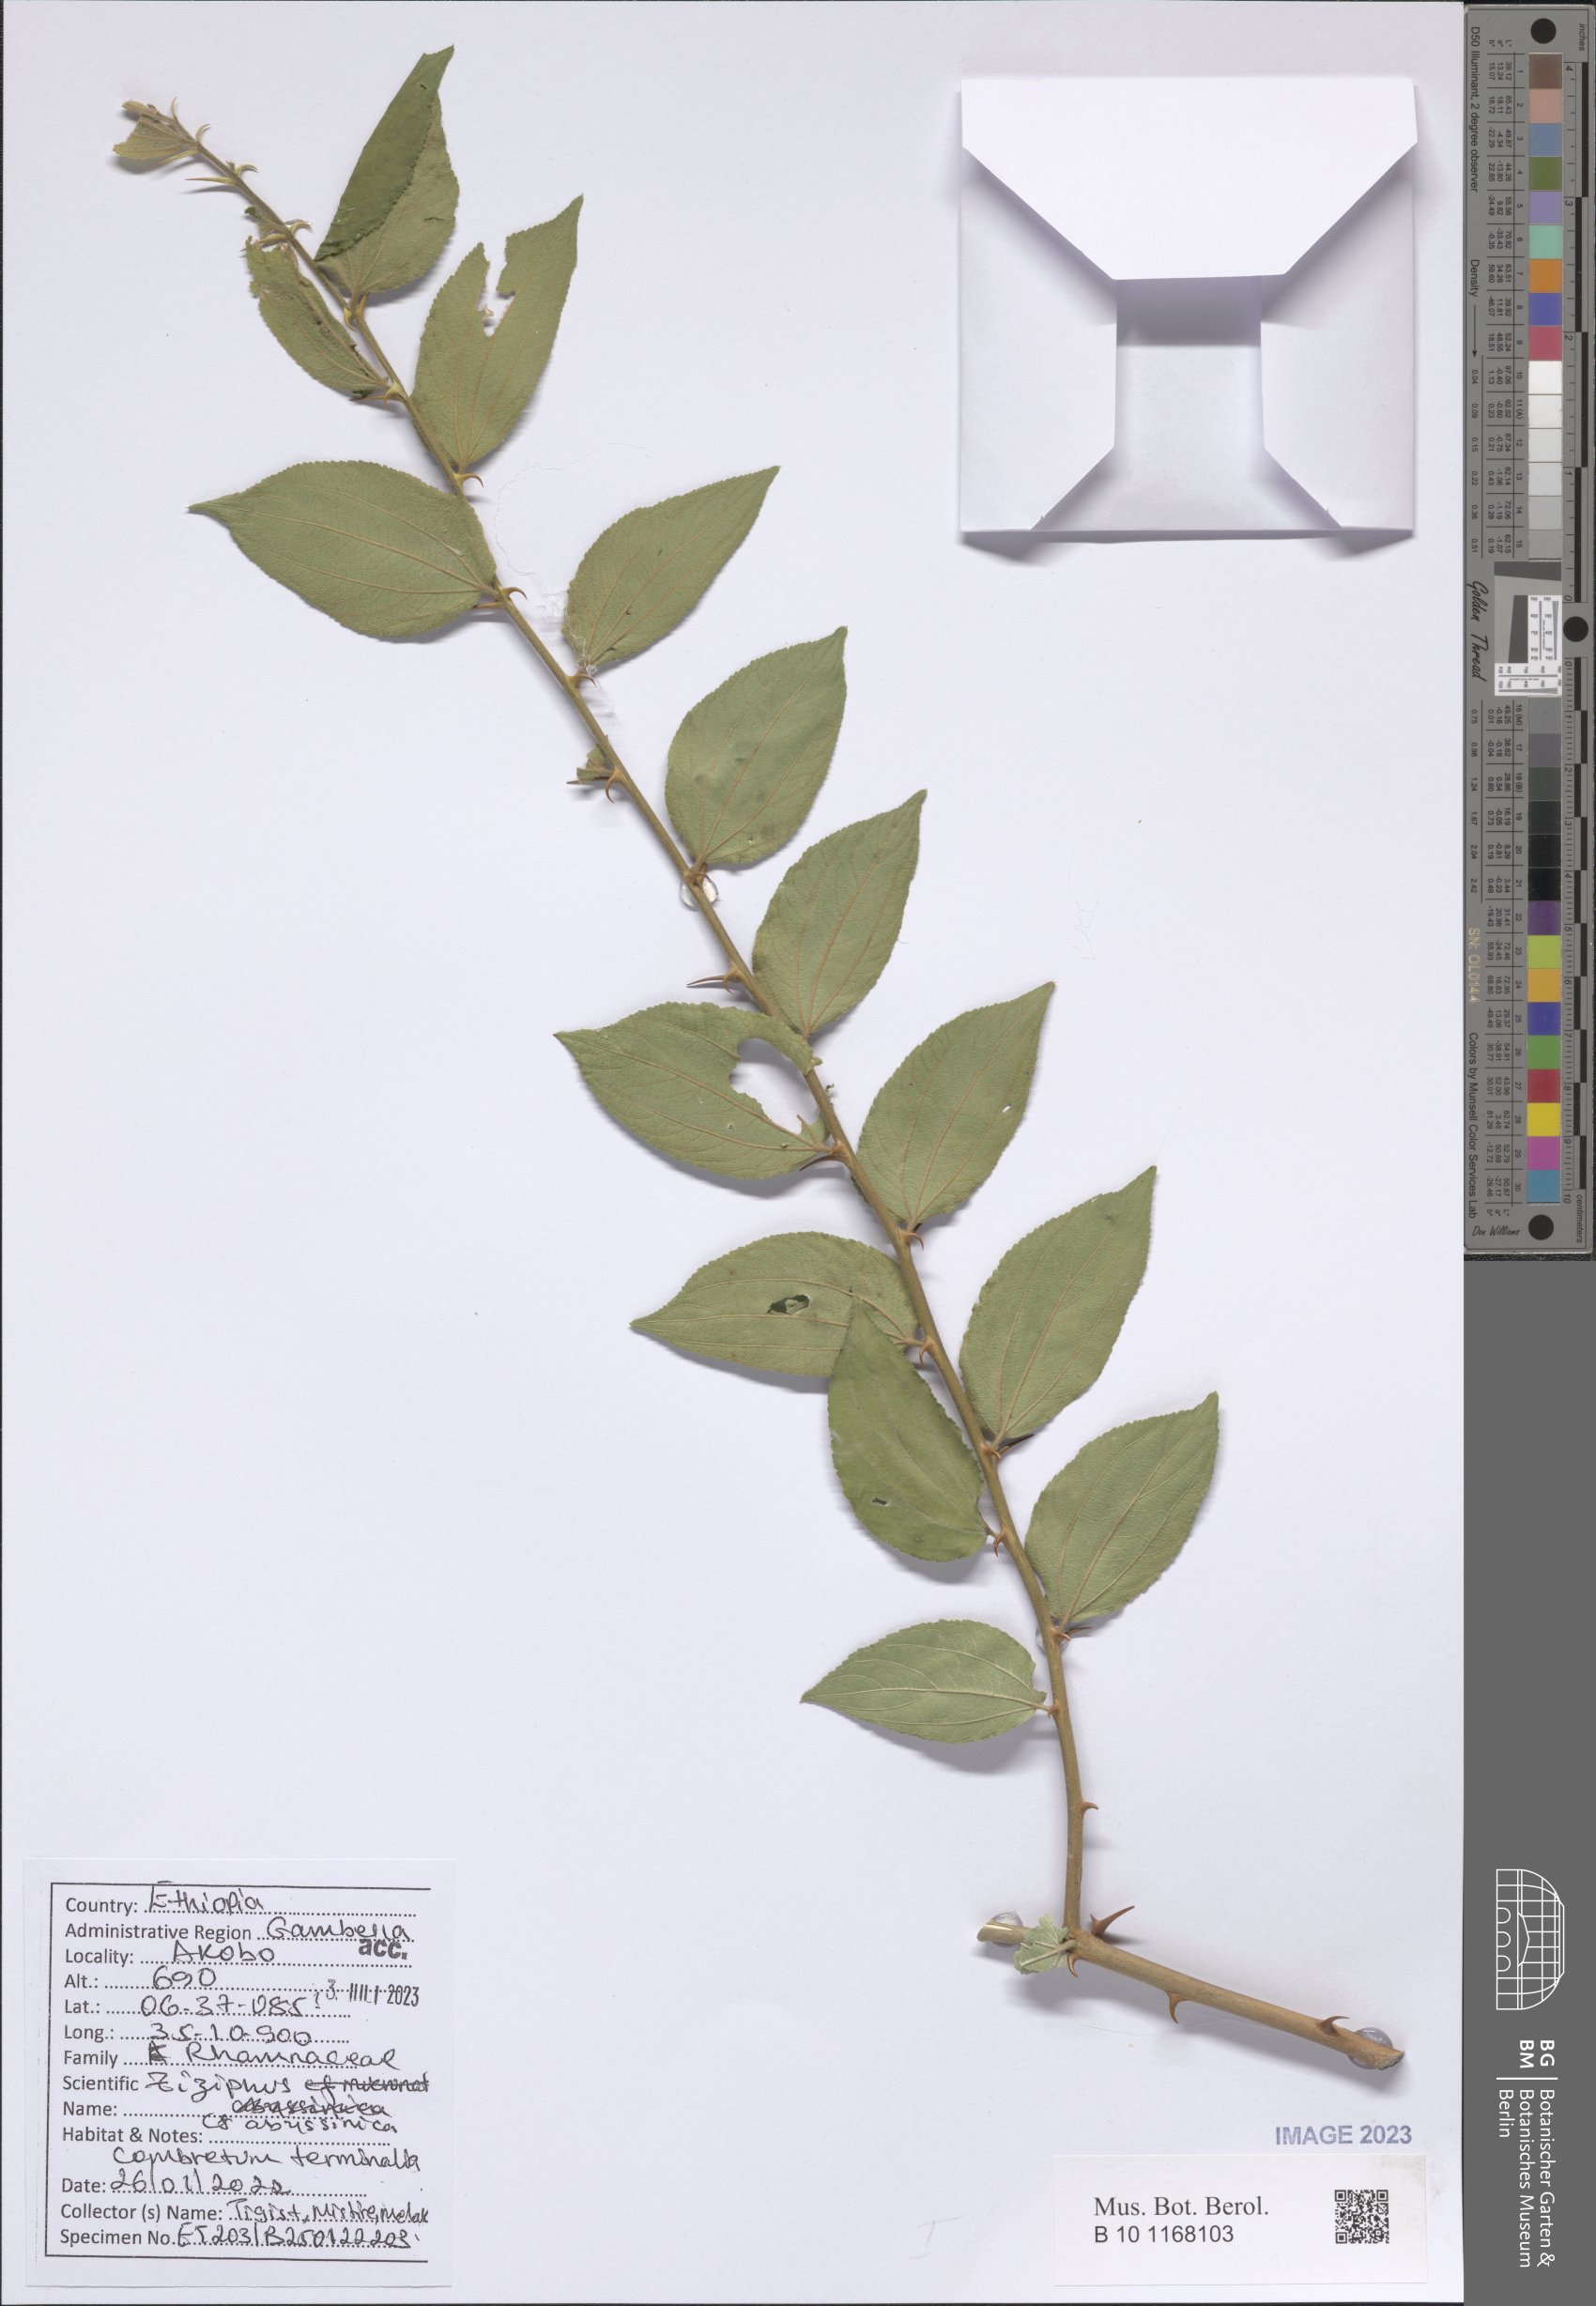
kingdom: Plantae
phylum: Tracheophyta
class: Magnoliopsida
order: Rosales
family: Rhamnaceae
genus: Ziziphus
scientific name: Ziziphus abyssinica
